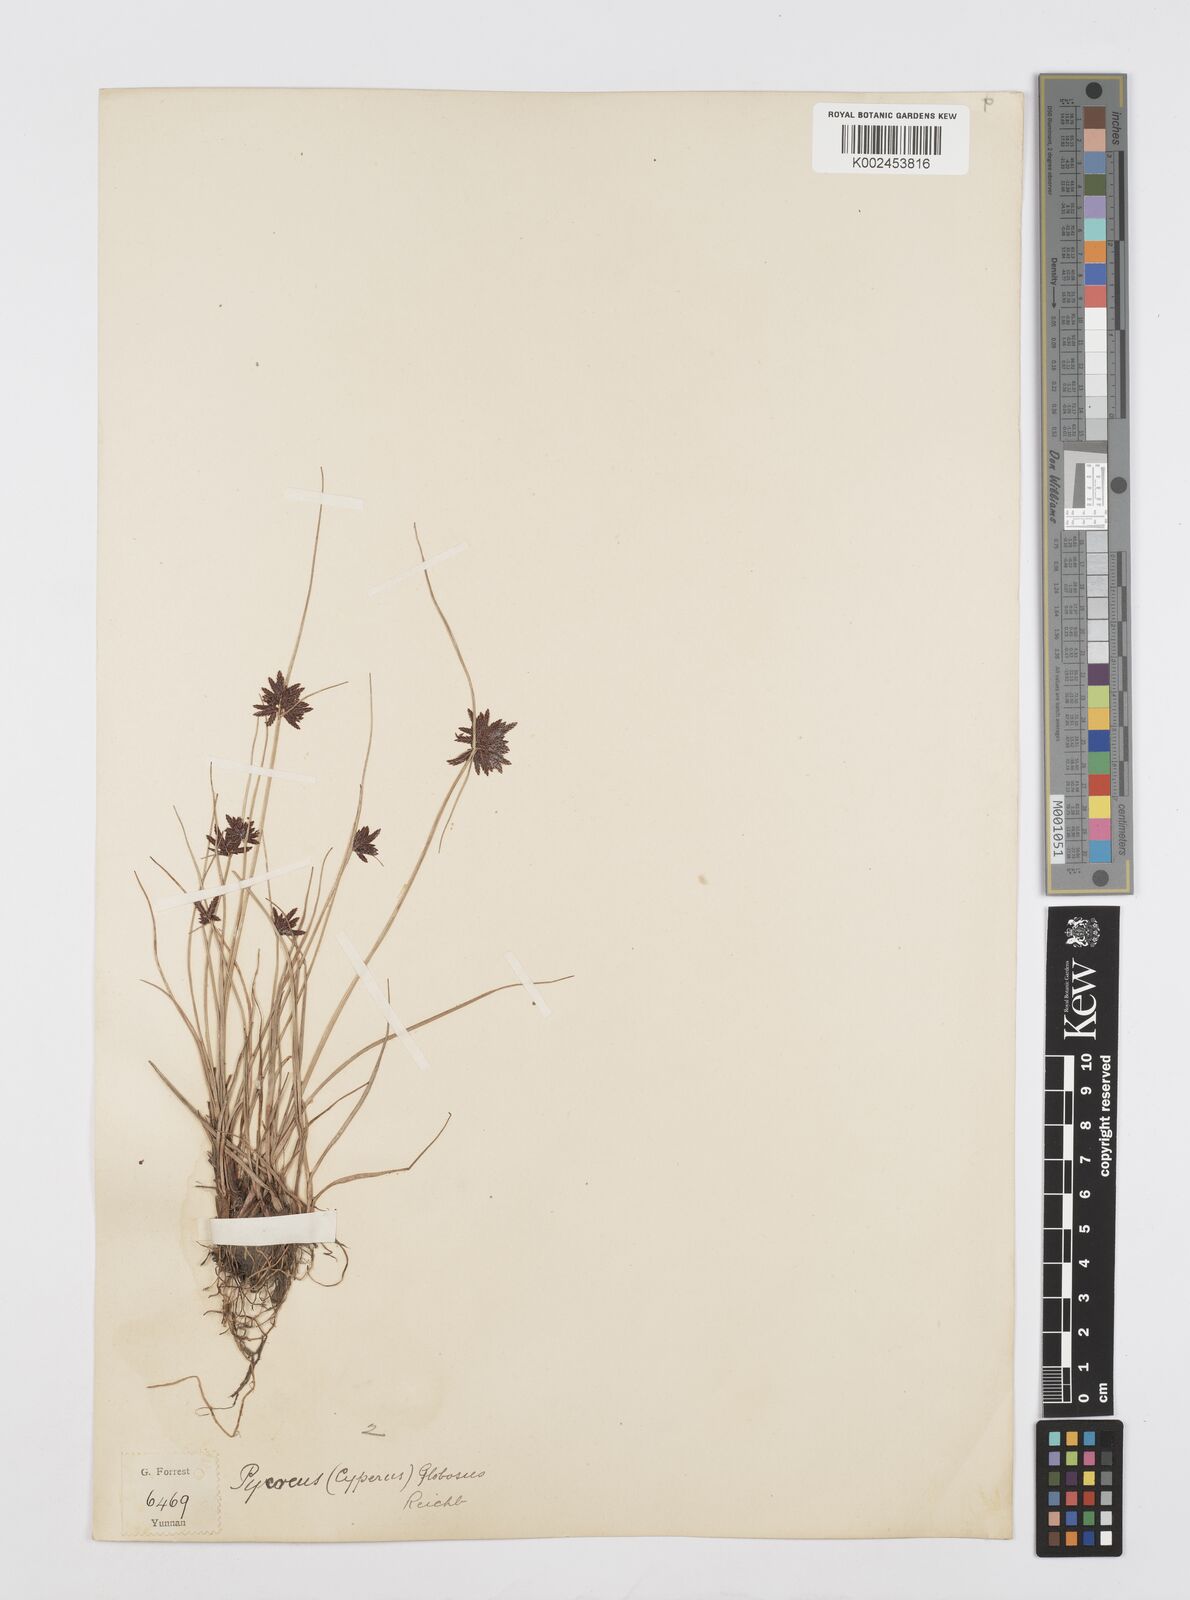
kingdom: Plantae
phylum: Tracheophyta
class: Liliopsida
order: Poales
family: Cyperaceae
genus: Cyperus
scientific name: Cyperus flavidus
